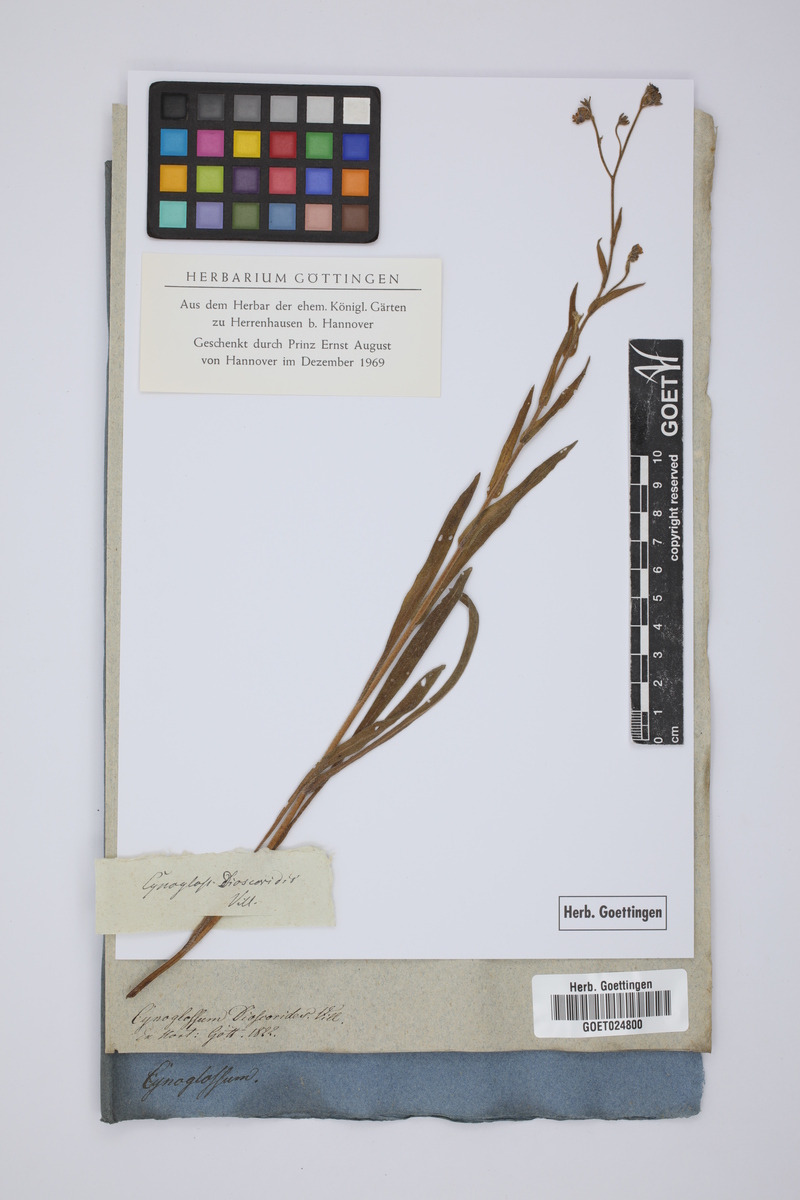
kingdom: Plantae
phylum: Tracheophyta
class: Magnoliopsida
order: Boraginales
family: Boraginaceae
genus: Cynoglossum
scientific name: Cynoglossum dioscoridis
